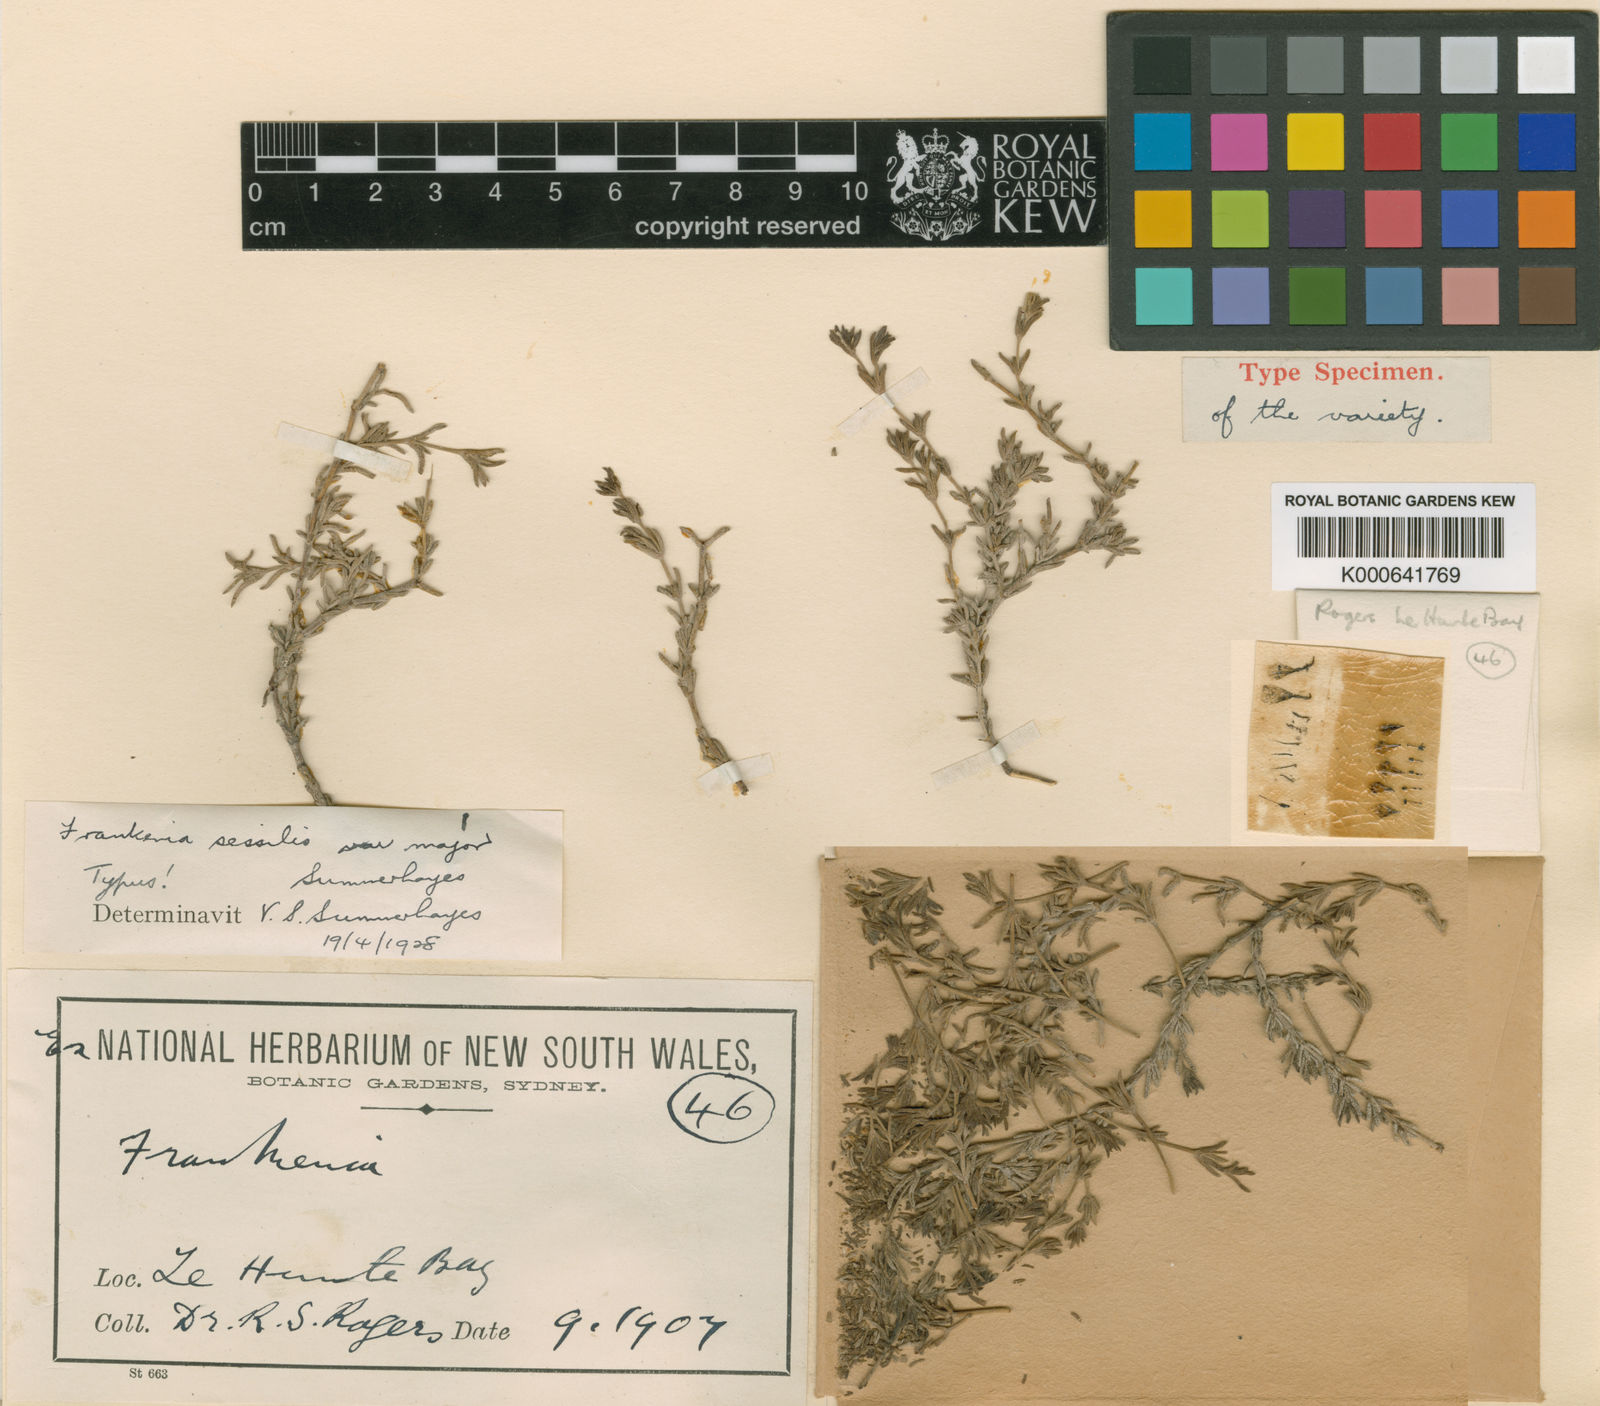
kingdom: Plantae
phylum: Tracheophyta
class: Magnoliopsida
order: Caryophyllales
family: Frankeniaceae
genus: Frankenia
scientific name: Frankenia sessilis
